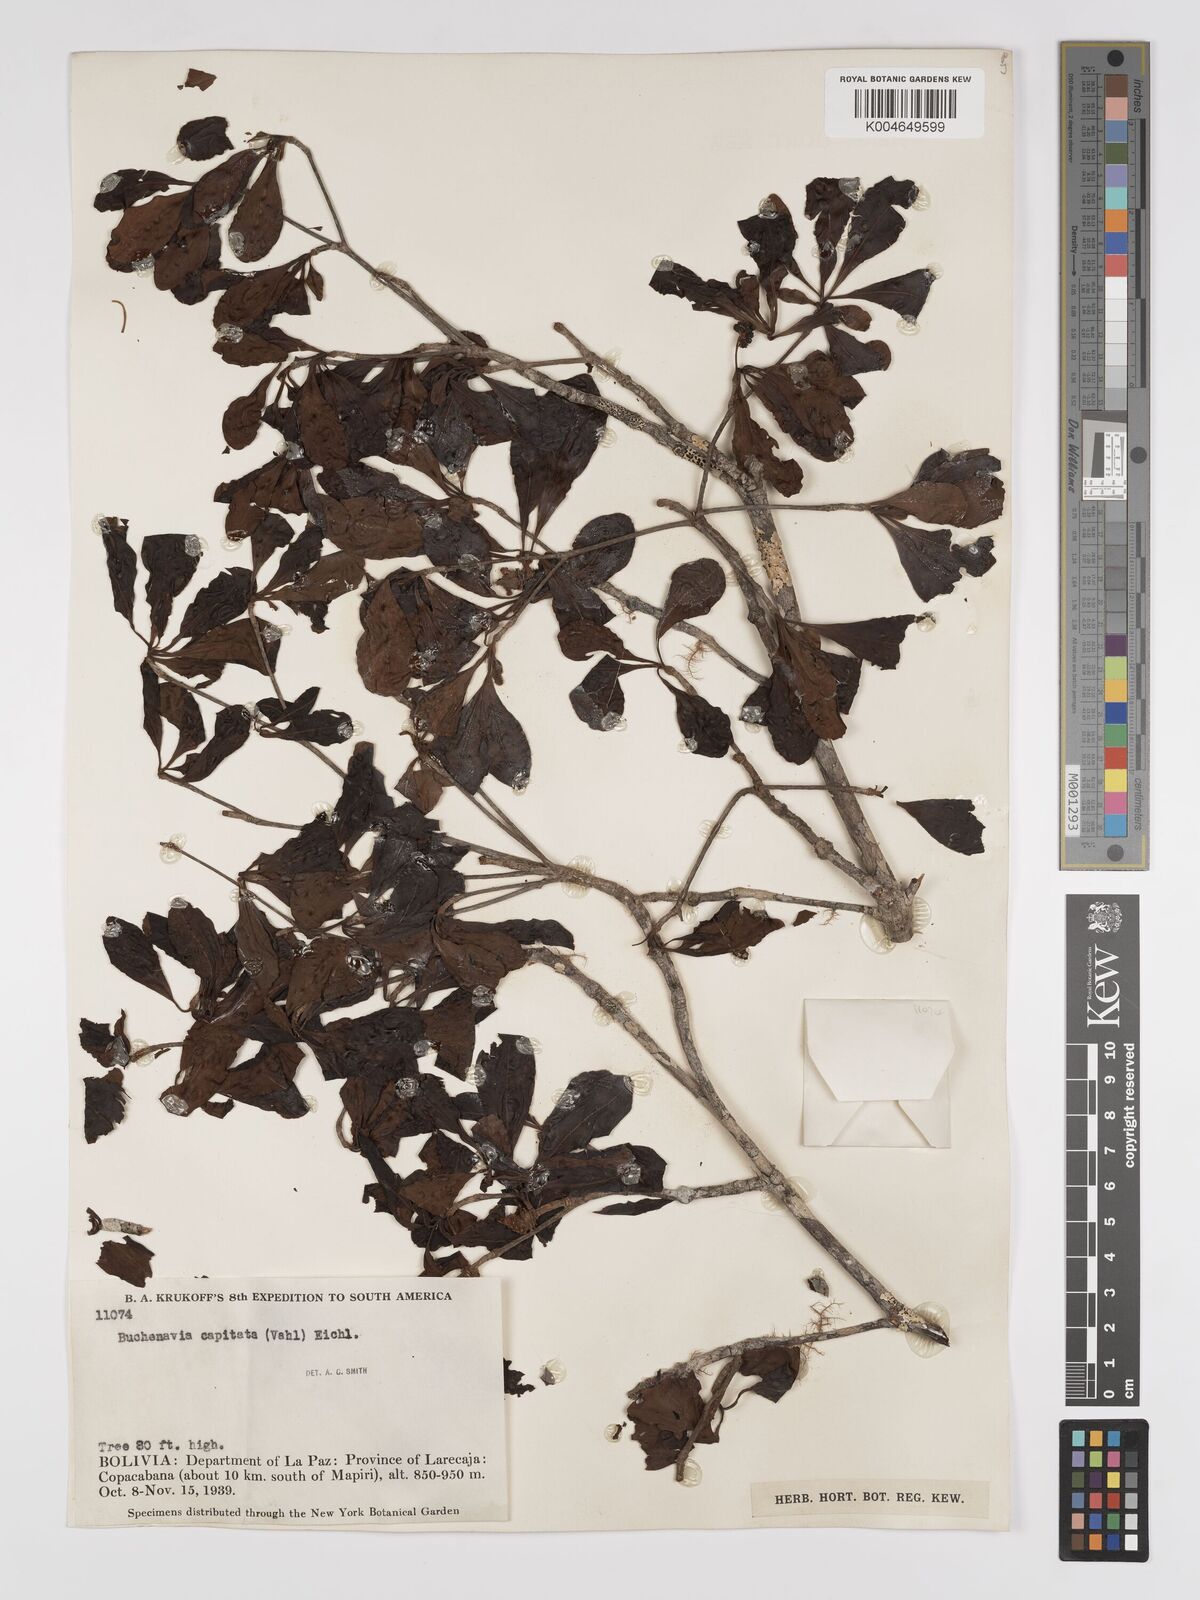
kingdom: Plantae
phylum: Tracheophyta
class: Magnoliopsida
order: Myrtales
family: Combretaceae
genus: Terminalia
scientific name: Terminalia tetraphylla
